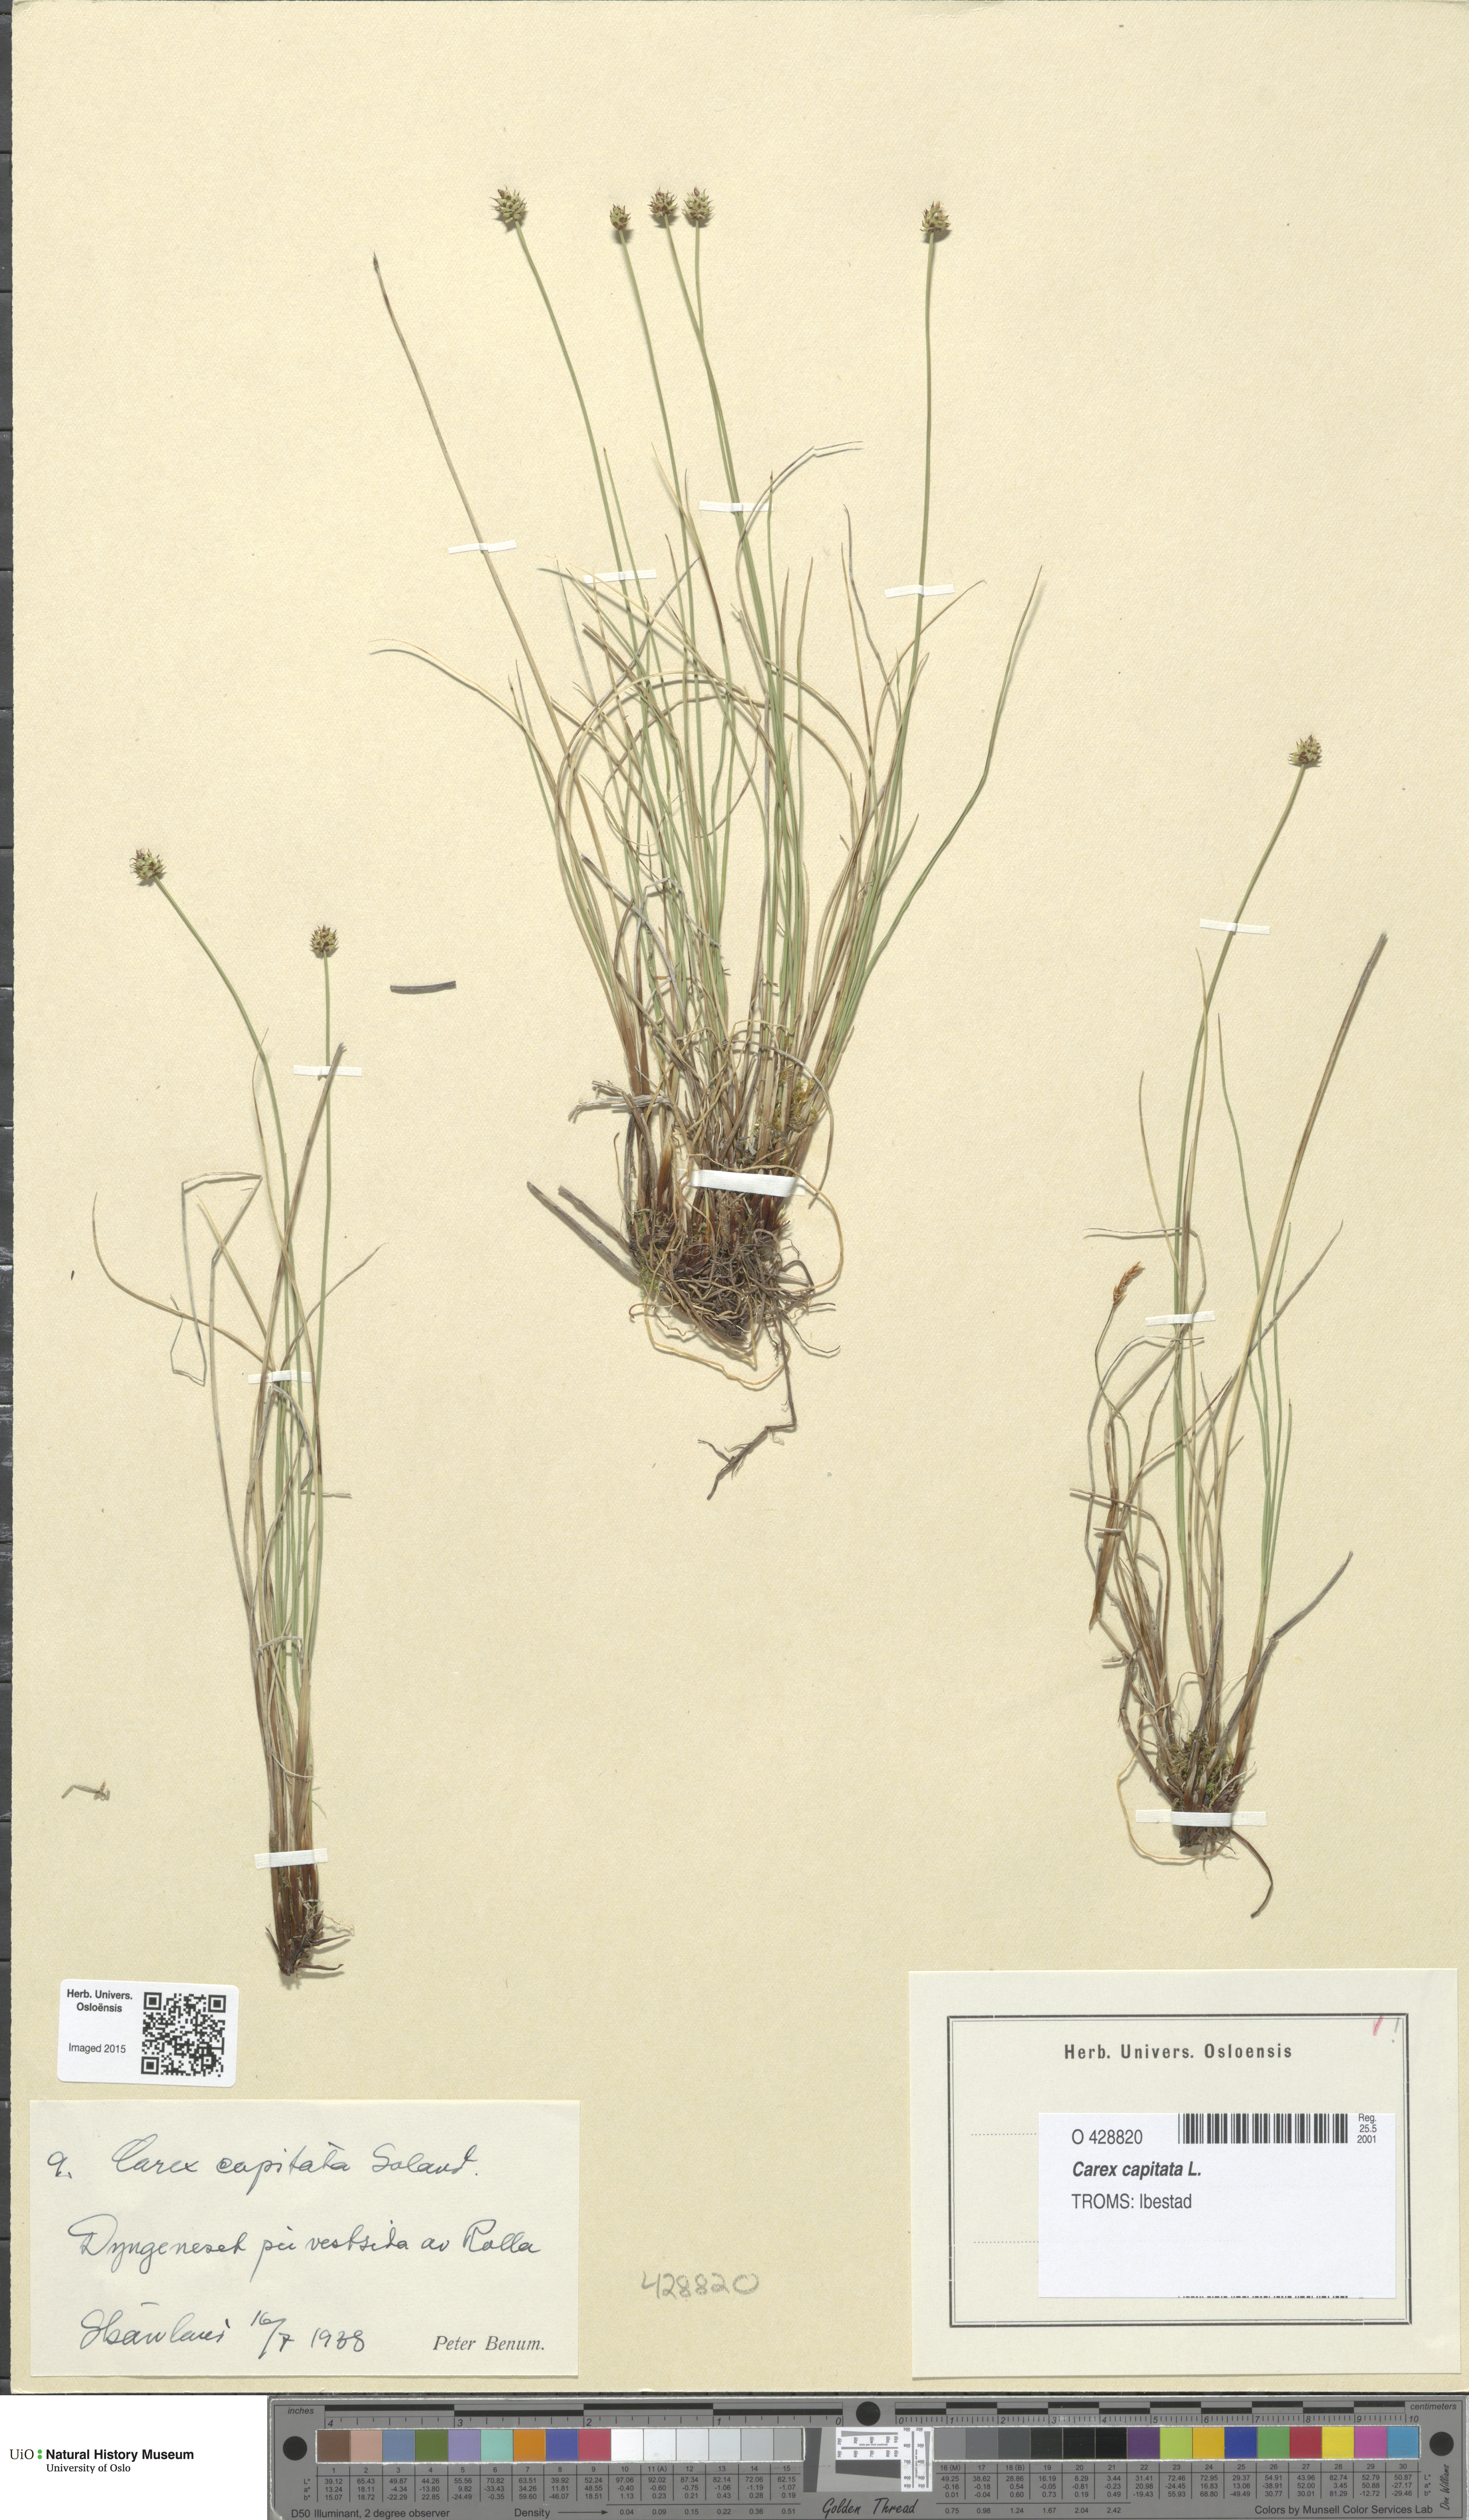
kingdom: Plantae
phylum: Tracheophyta
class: Liliopsida
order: Poales
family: Cyperaceae
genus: Carex
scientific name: Carex capitata
